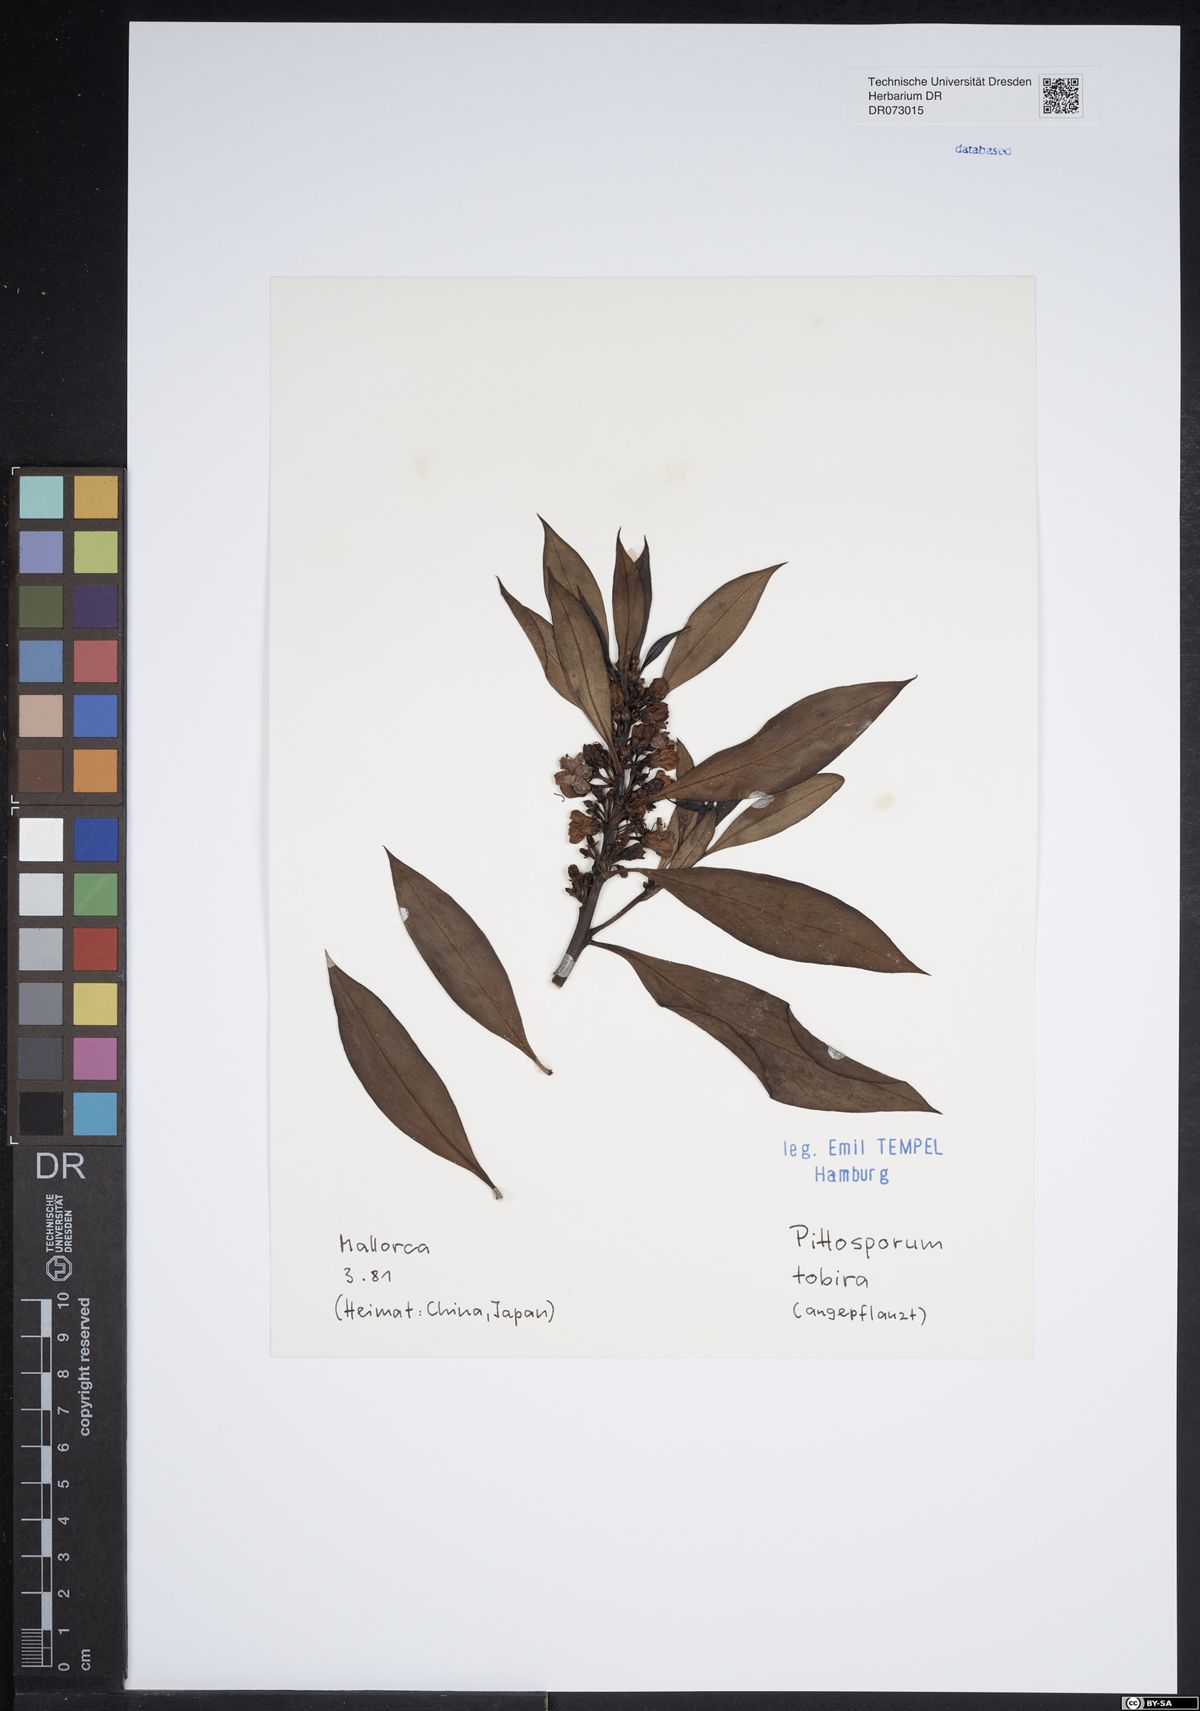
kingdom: Plantae
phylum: Tracheophyta
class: Magnoliopsida
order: Apiales
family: Pittosporaceae
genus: Pittosporum
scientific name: Pittosporum tobira
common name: Japanese cheesewood
